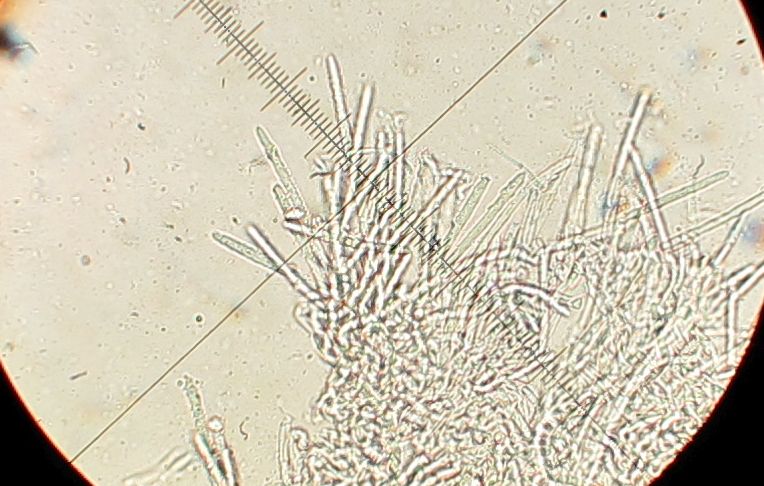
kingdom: Fungi
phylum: Ascomycota
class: Leotiomycetes
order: Helotiales
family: Lachnaceae
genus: Lachnum
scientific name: Lachnum virgineum
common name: jomfru-frynseskive
